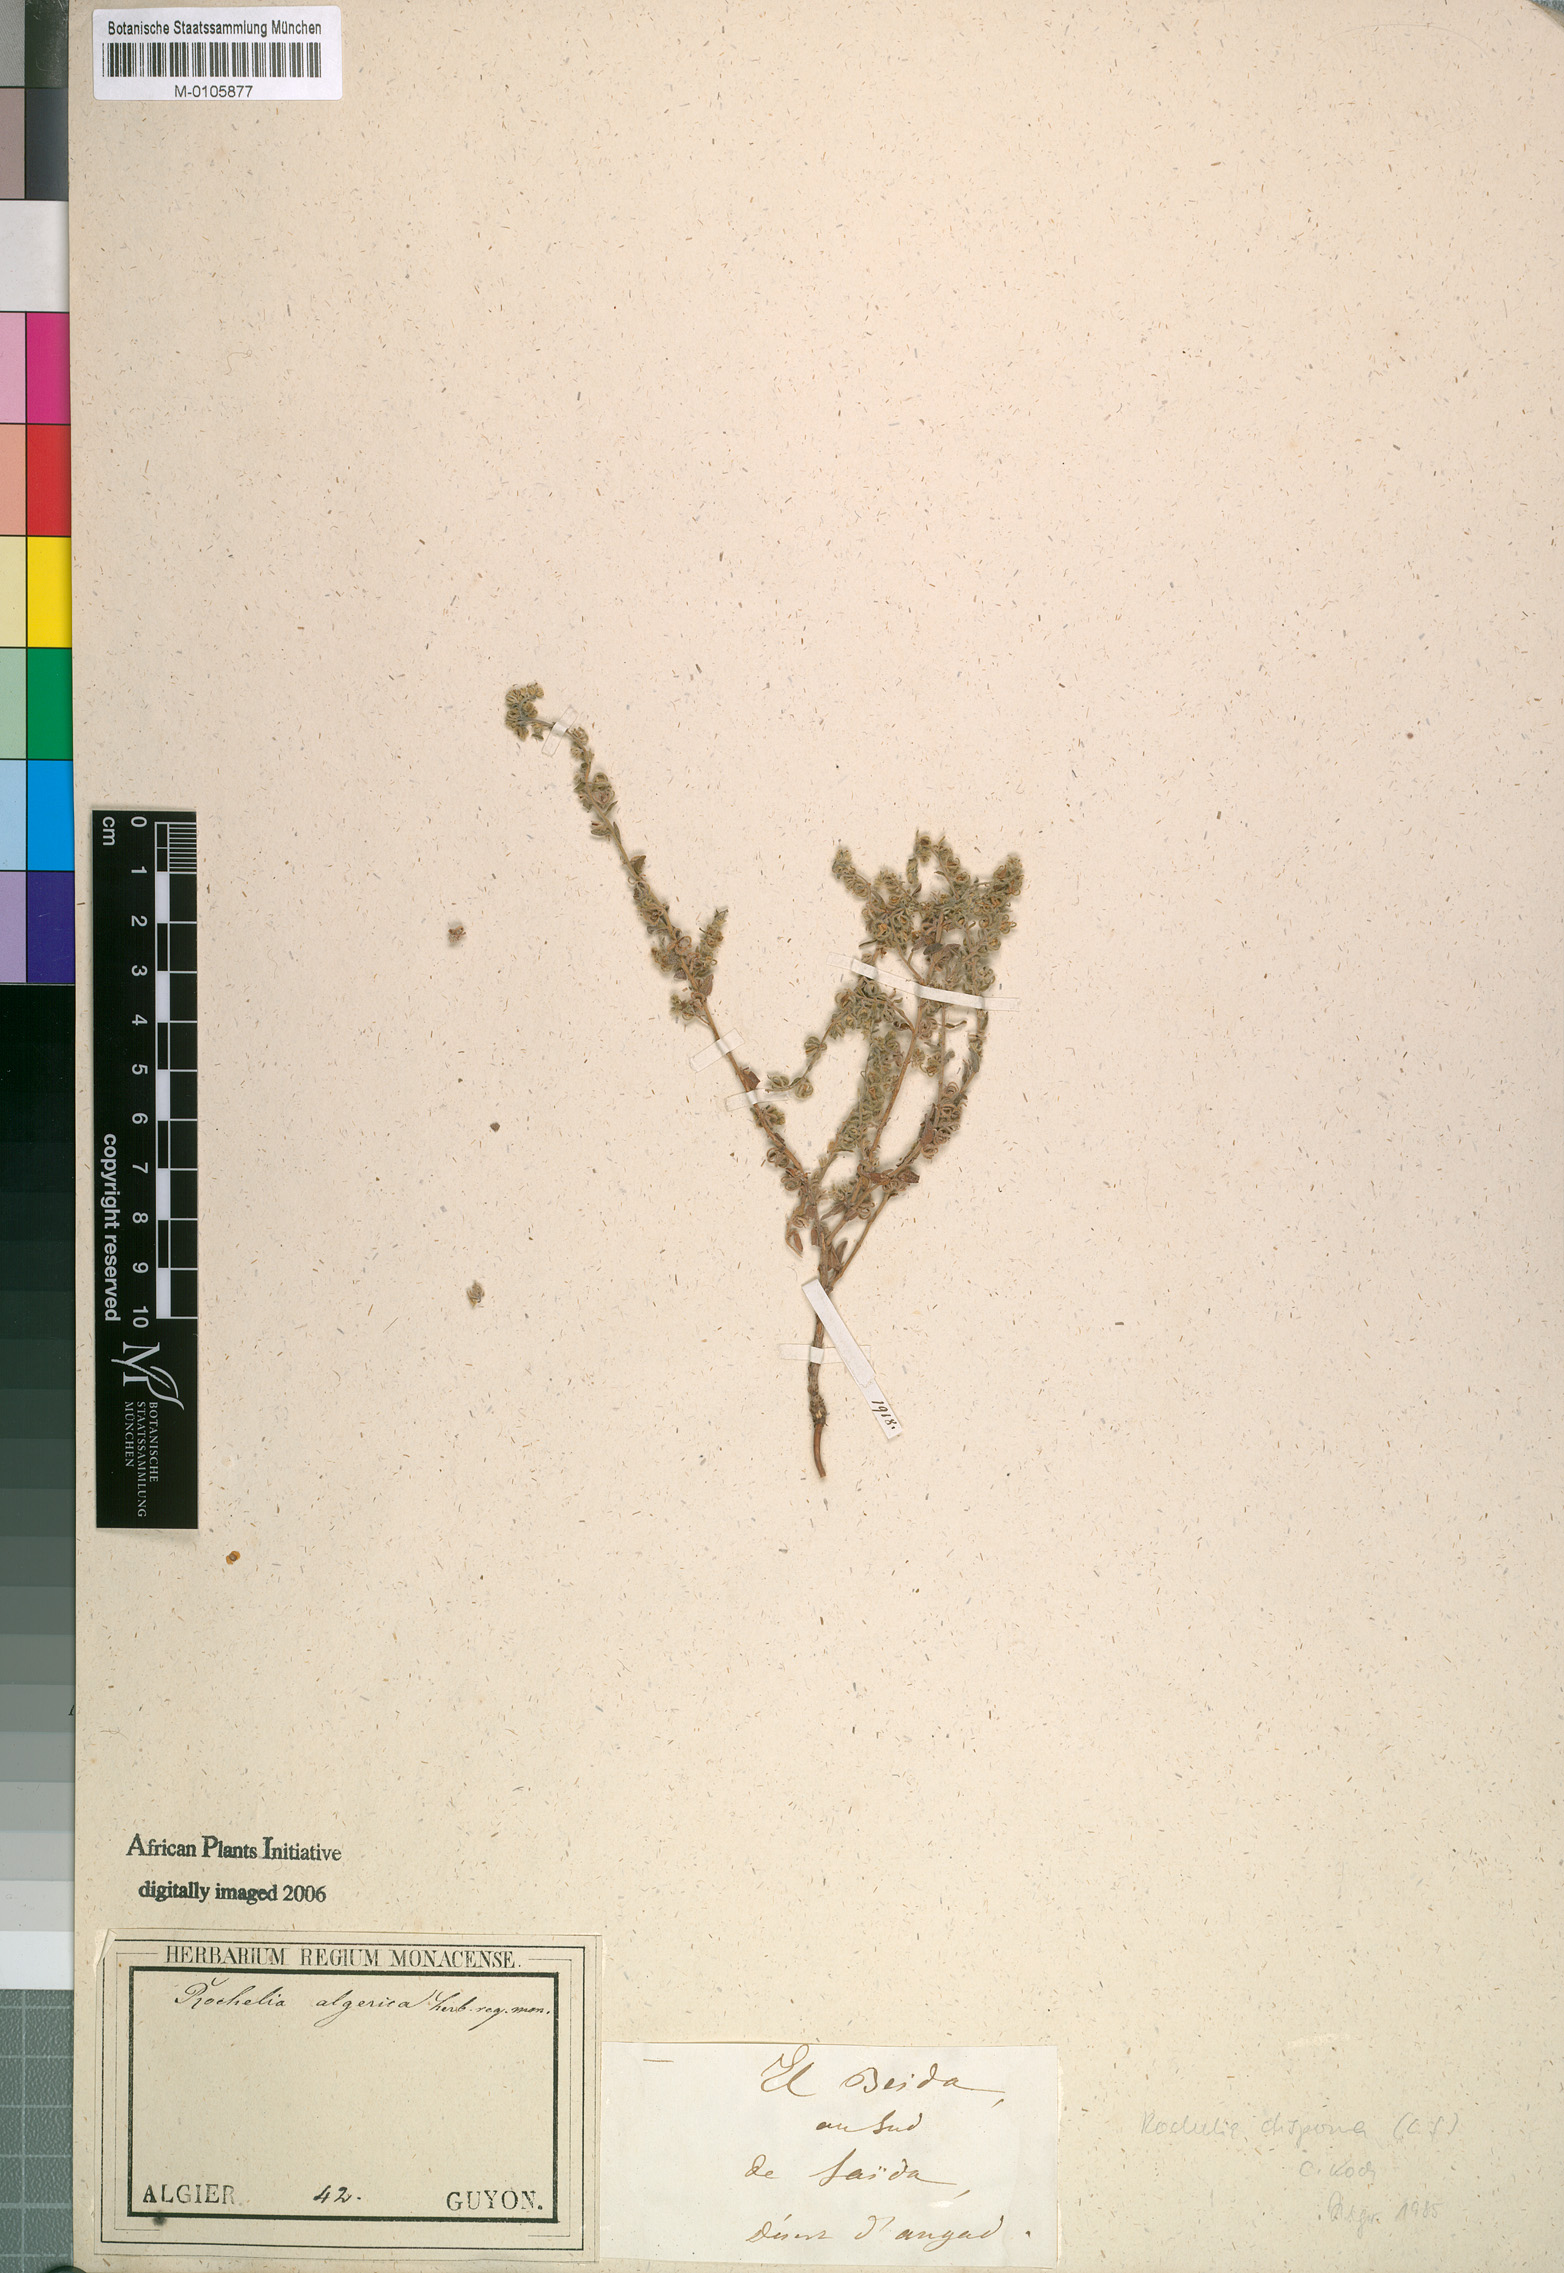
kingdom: Plantae
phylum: Tracheophyta
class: Magnoliopsida
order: Boraginales
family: Boraginaceae
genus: Rochelia
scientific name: Rochelia disperma
